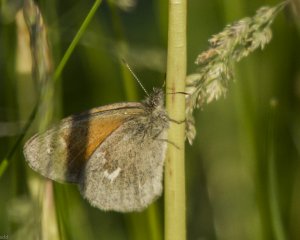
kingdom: Animalia
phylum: Arthropoda
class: Insecta
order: Lepidoptera
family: Nymphalidae
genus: Coenonympha
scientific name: Coenonympha tullia
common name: Large Heath
